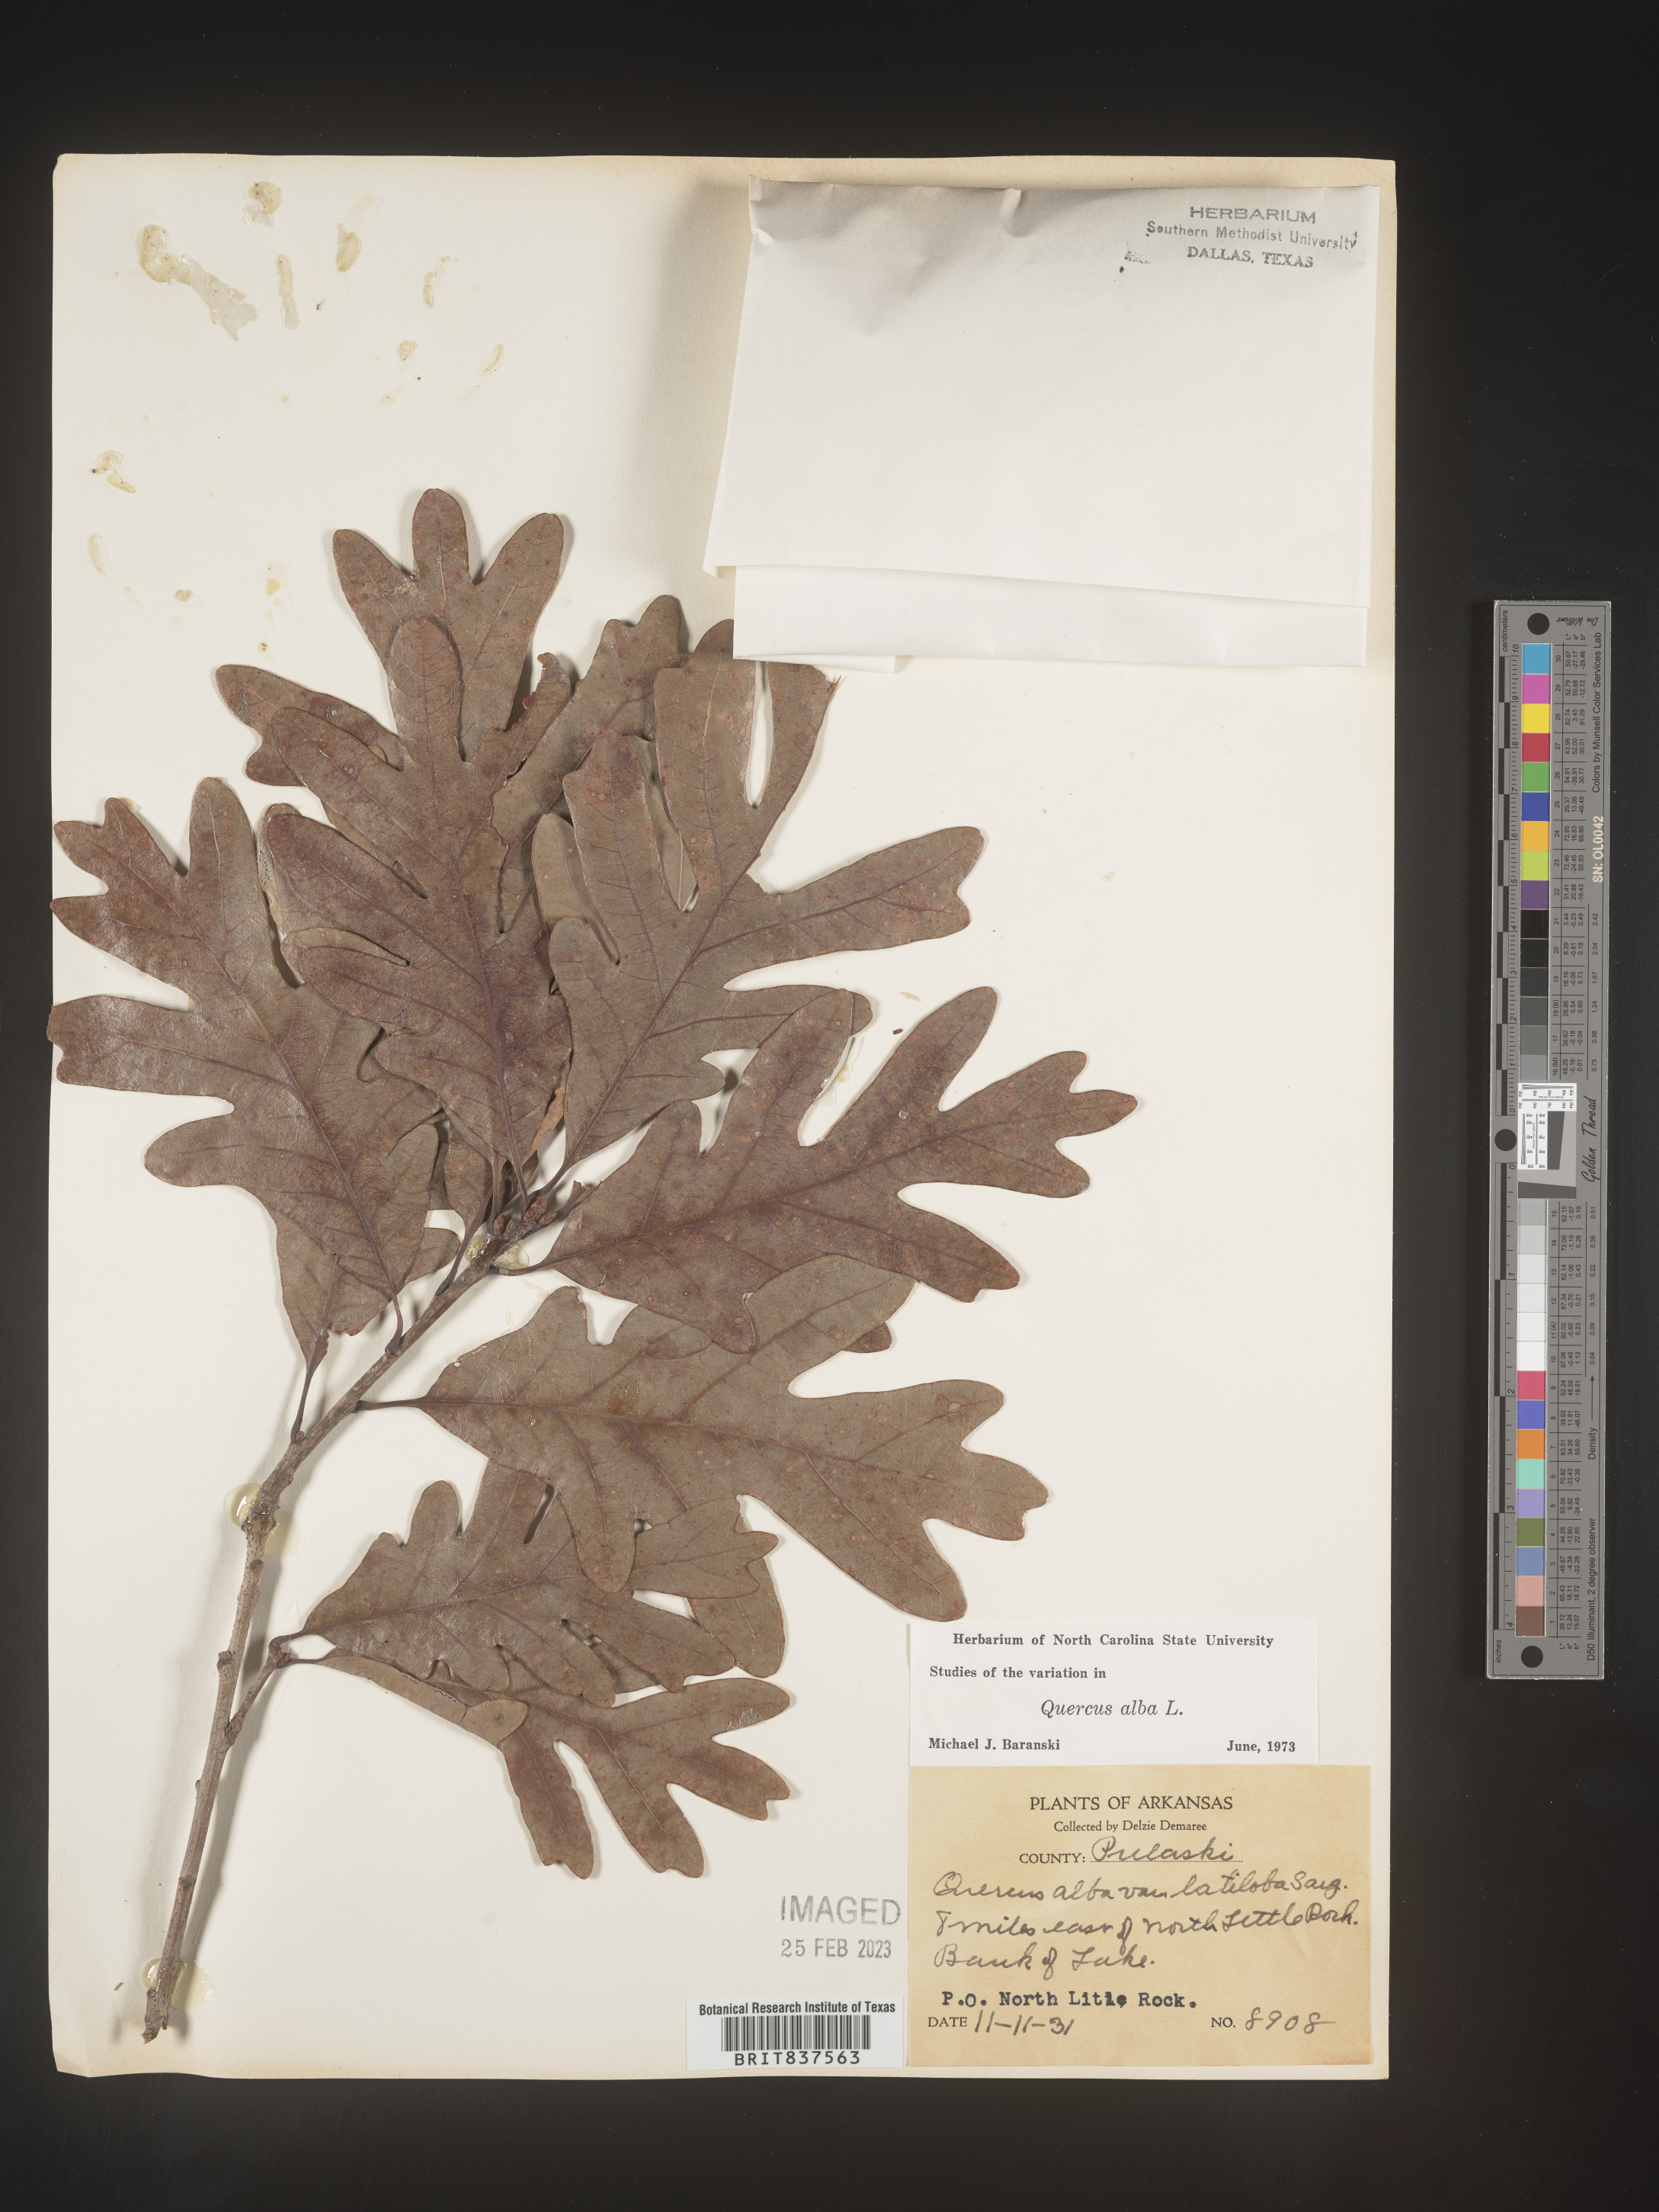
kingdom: Plantae
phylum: Tracheophyta
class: Magnoliopsida
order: Fagales
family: Fagaceae
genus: Quercus
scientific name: Quercus alba
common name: White oak
